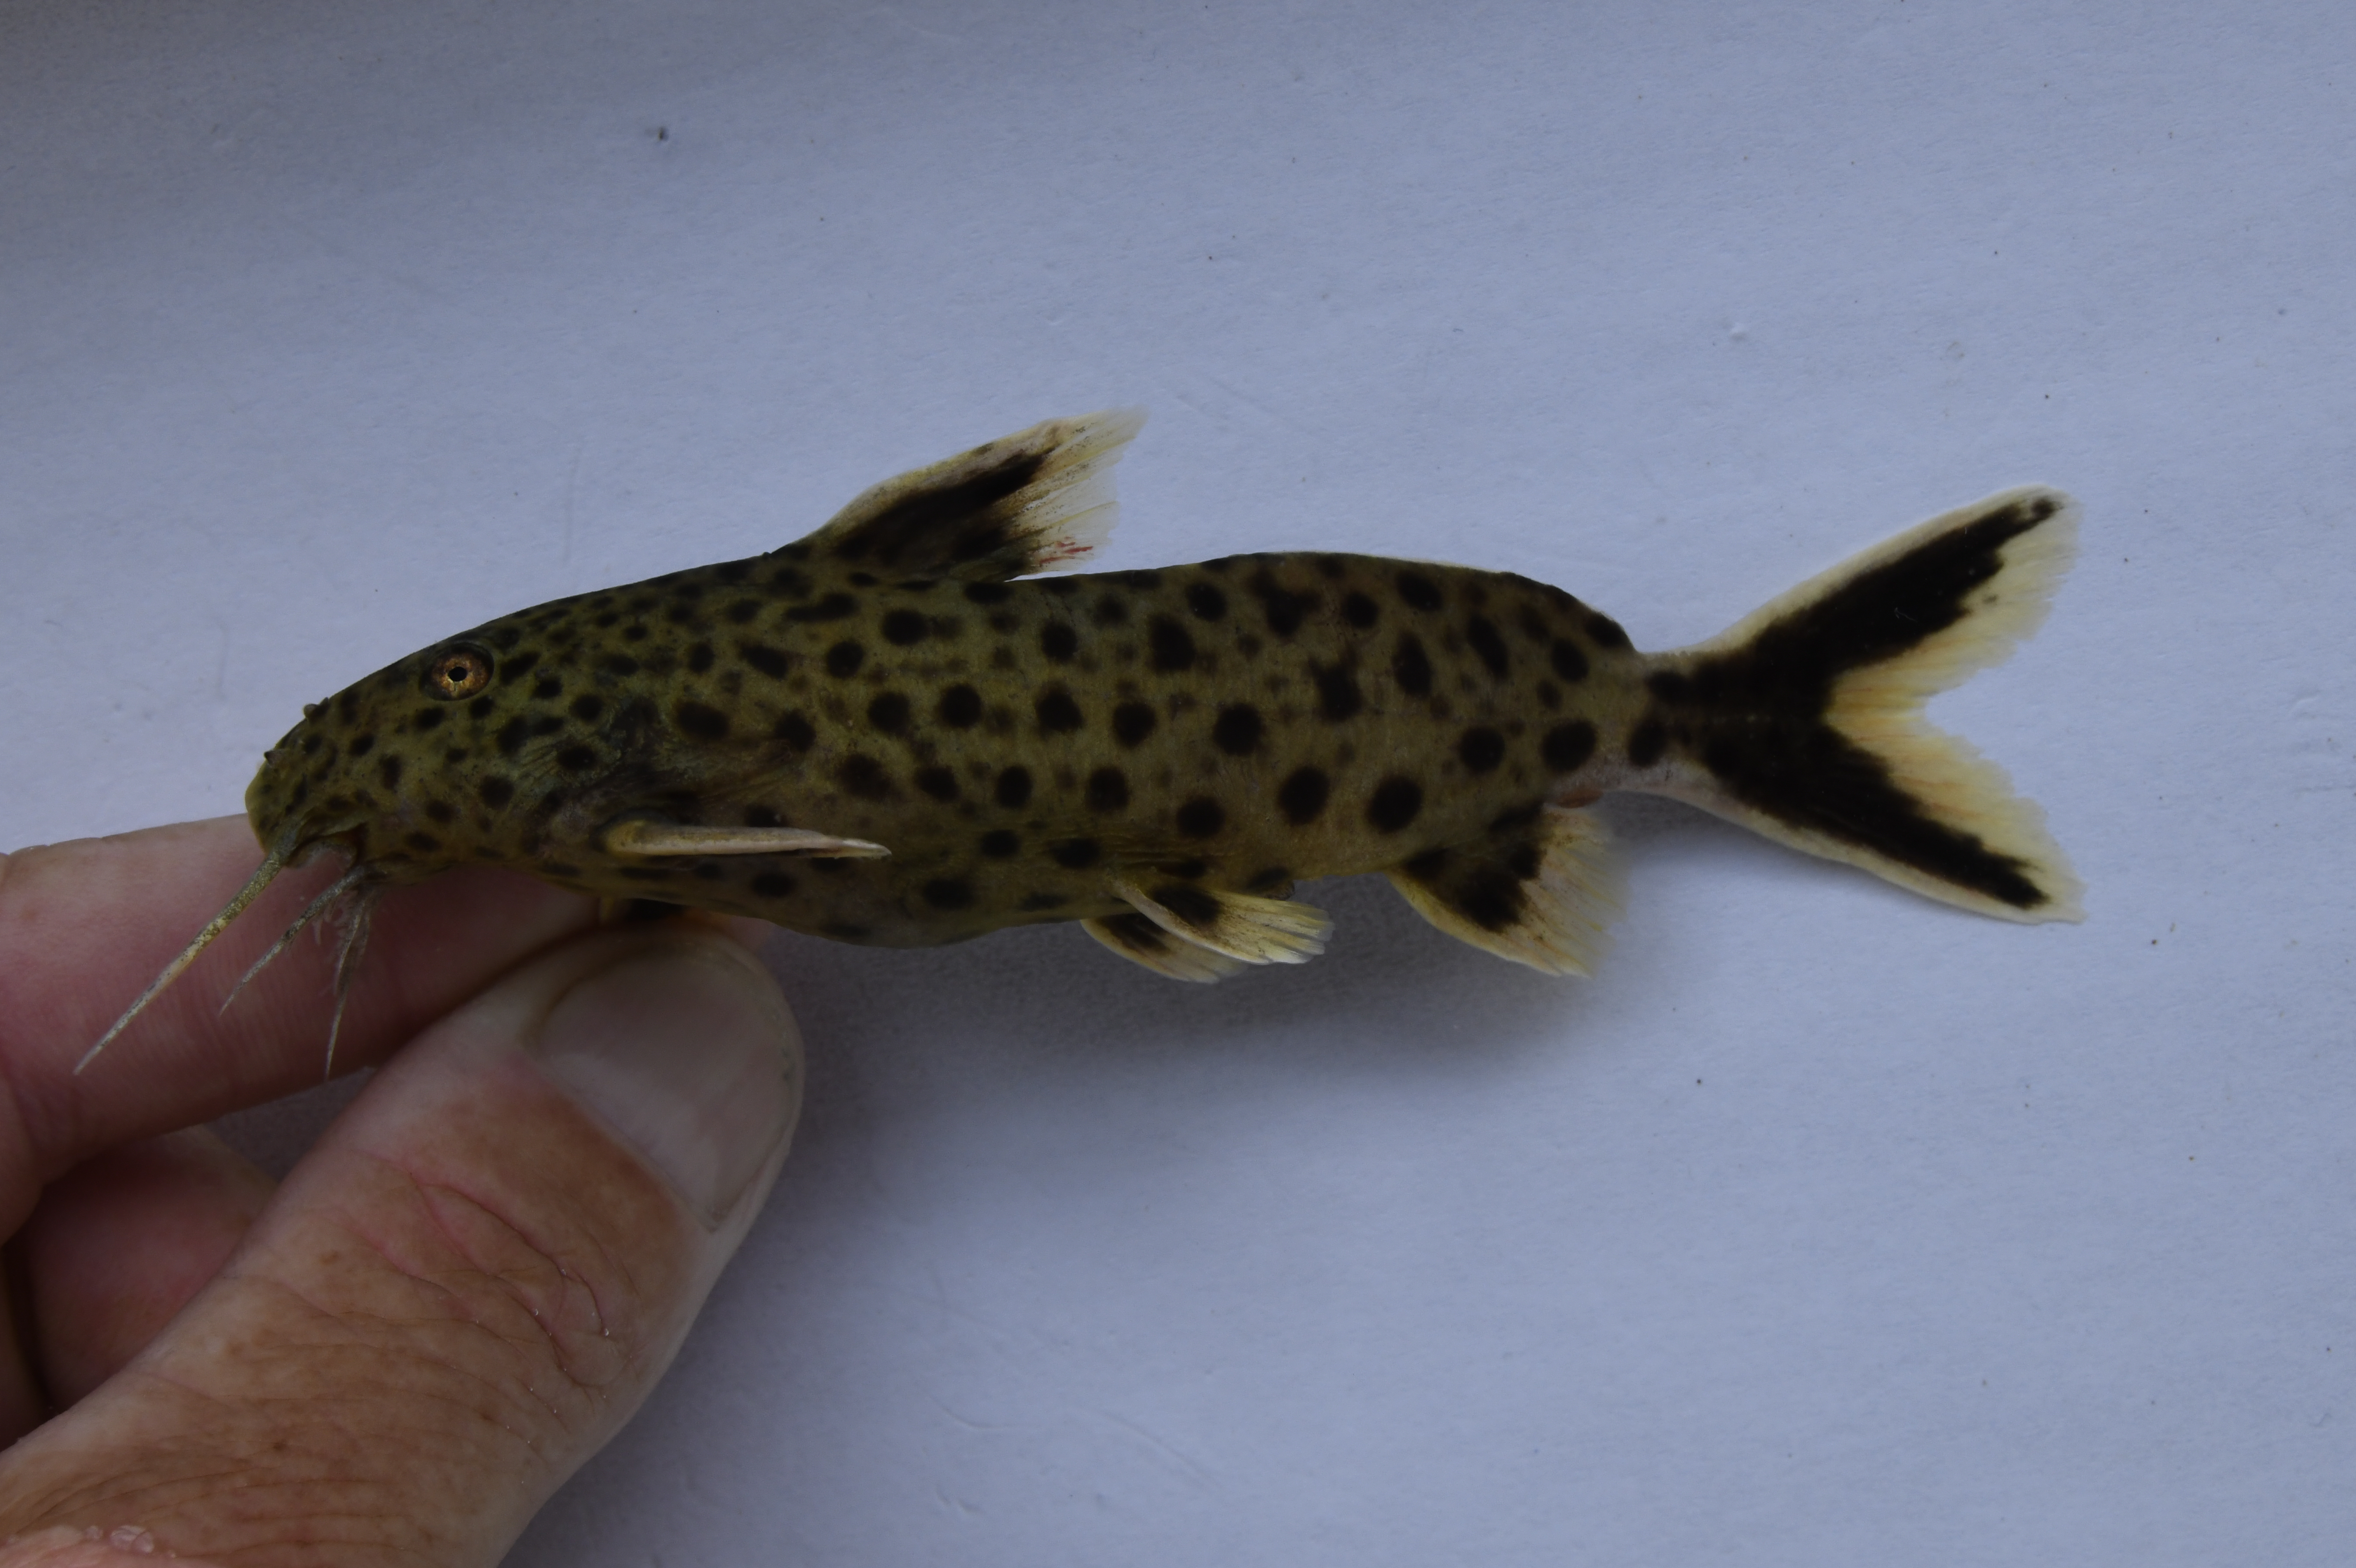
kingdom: Animalia
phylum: Chordata
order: Siluriformes
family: Mochokidae
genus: Synodontis
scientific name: Synodontis ilebrevis
